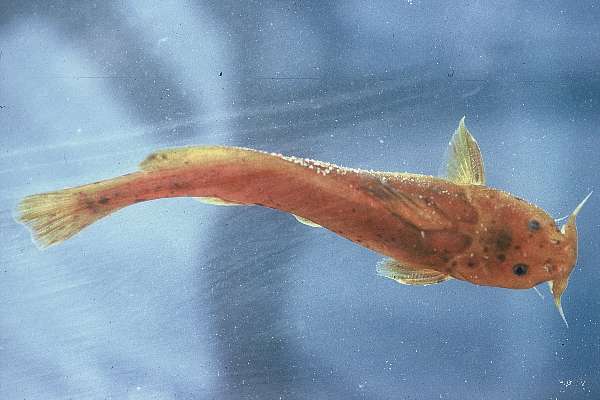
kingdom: Animalia
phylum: Chordata
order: Siluriformes
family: Austroglanididae
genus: Austroglanis
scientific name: Austroglanis barnardi
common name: Barnard's rock-catfish
